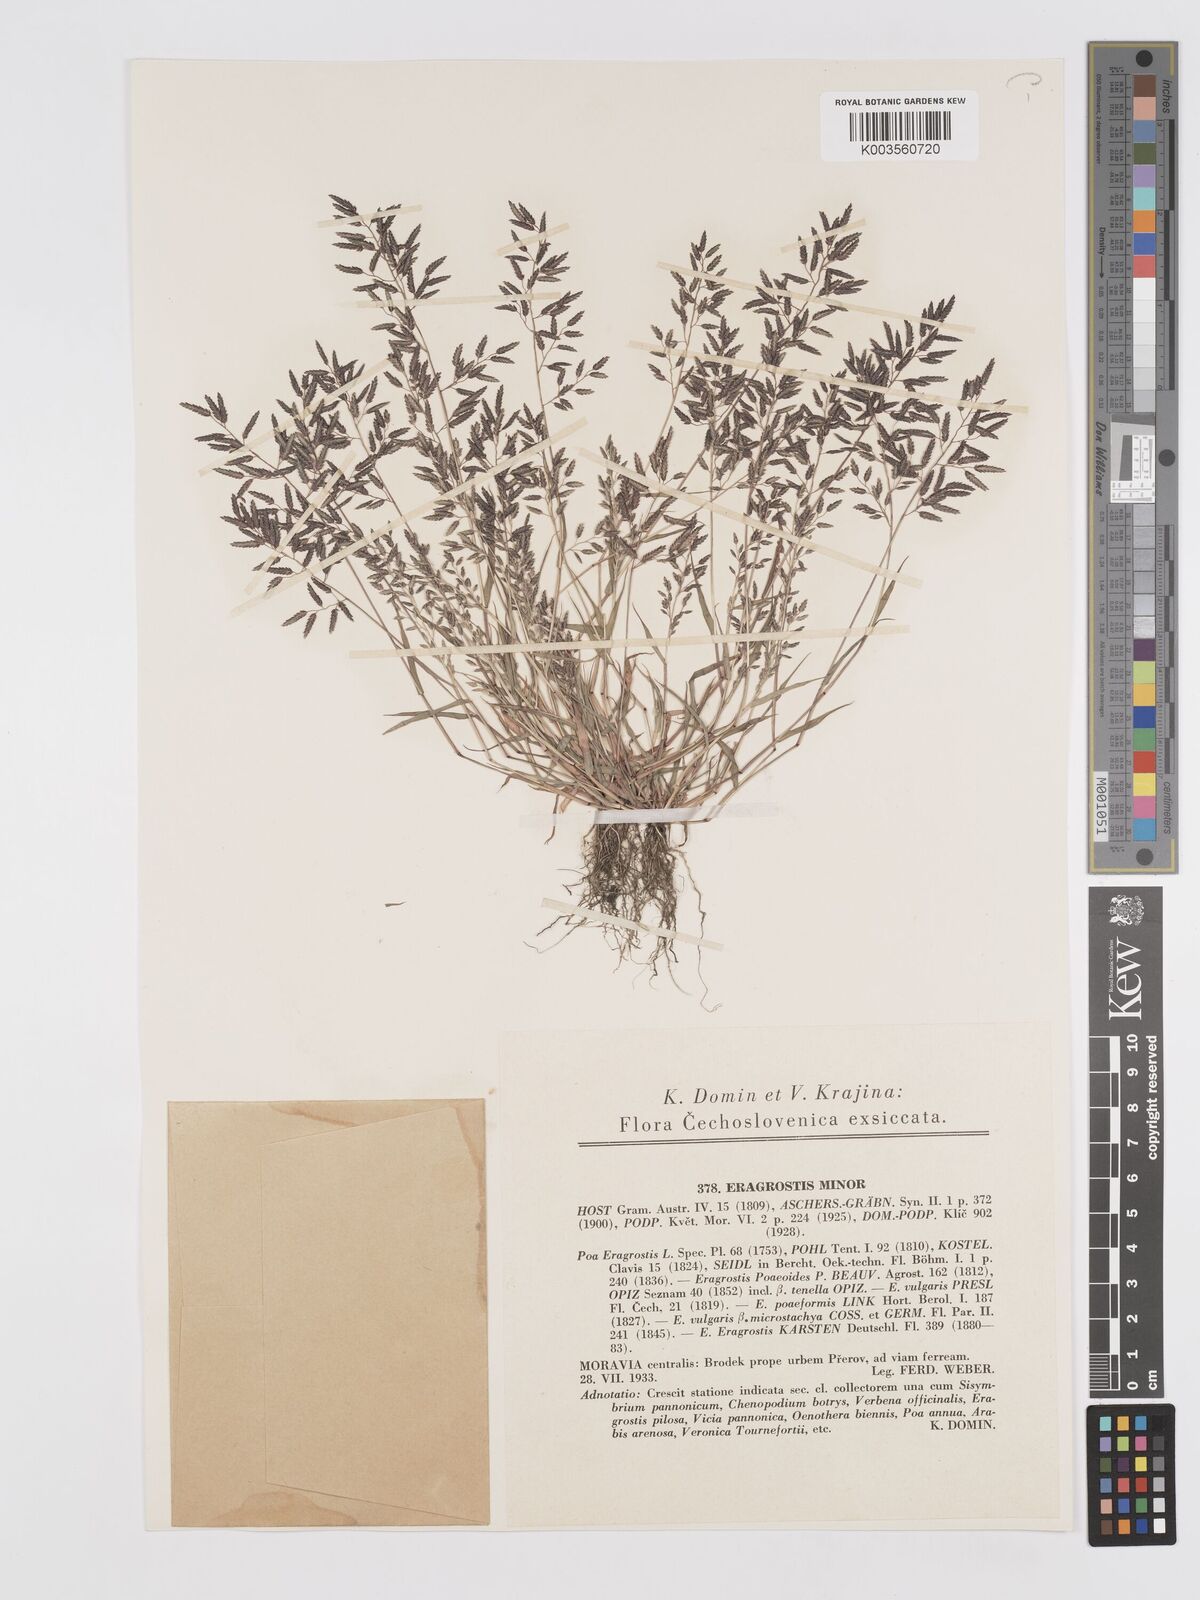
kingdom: Plantae
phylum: Tracheophyta
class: Liliopsida
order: Poales
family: Poaceae
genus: Eragrostis
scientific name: Eragrostis minor
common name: Small love-grass
